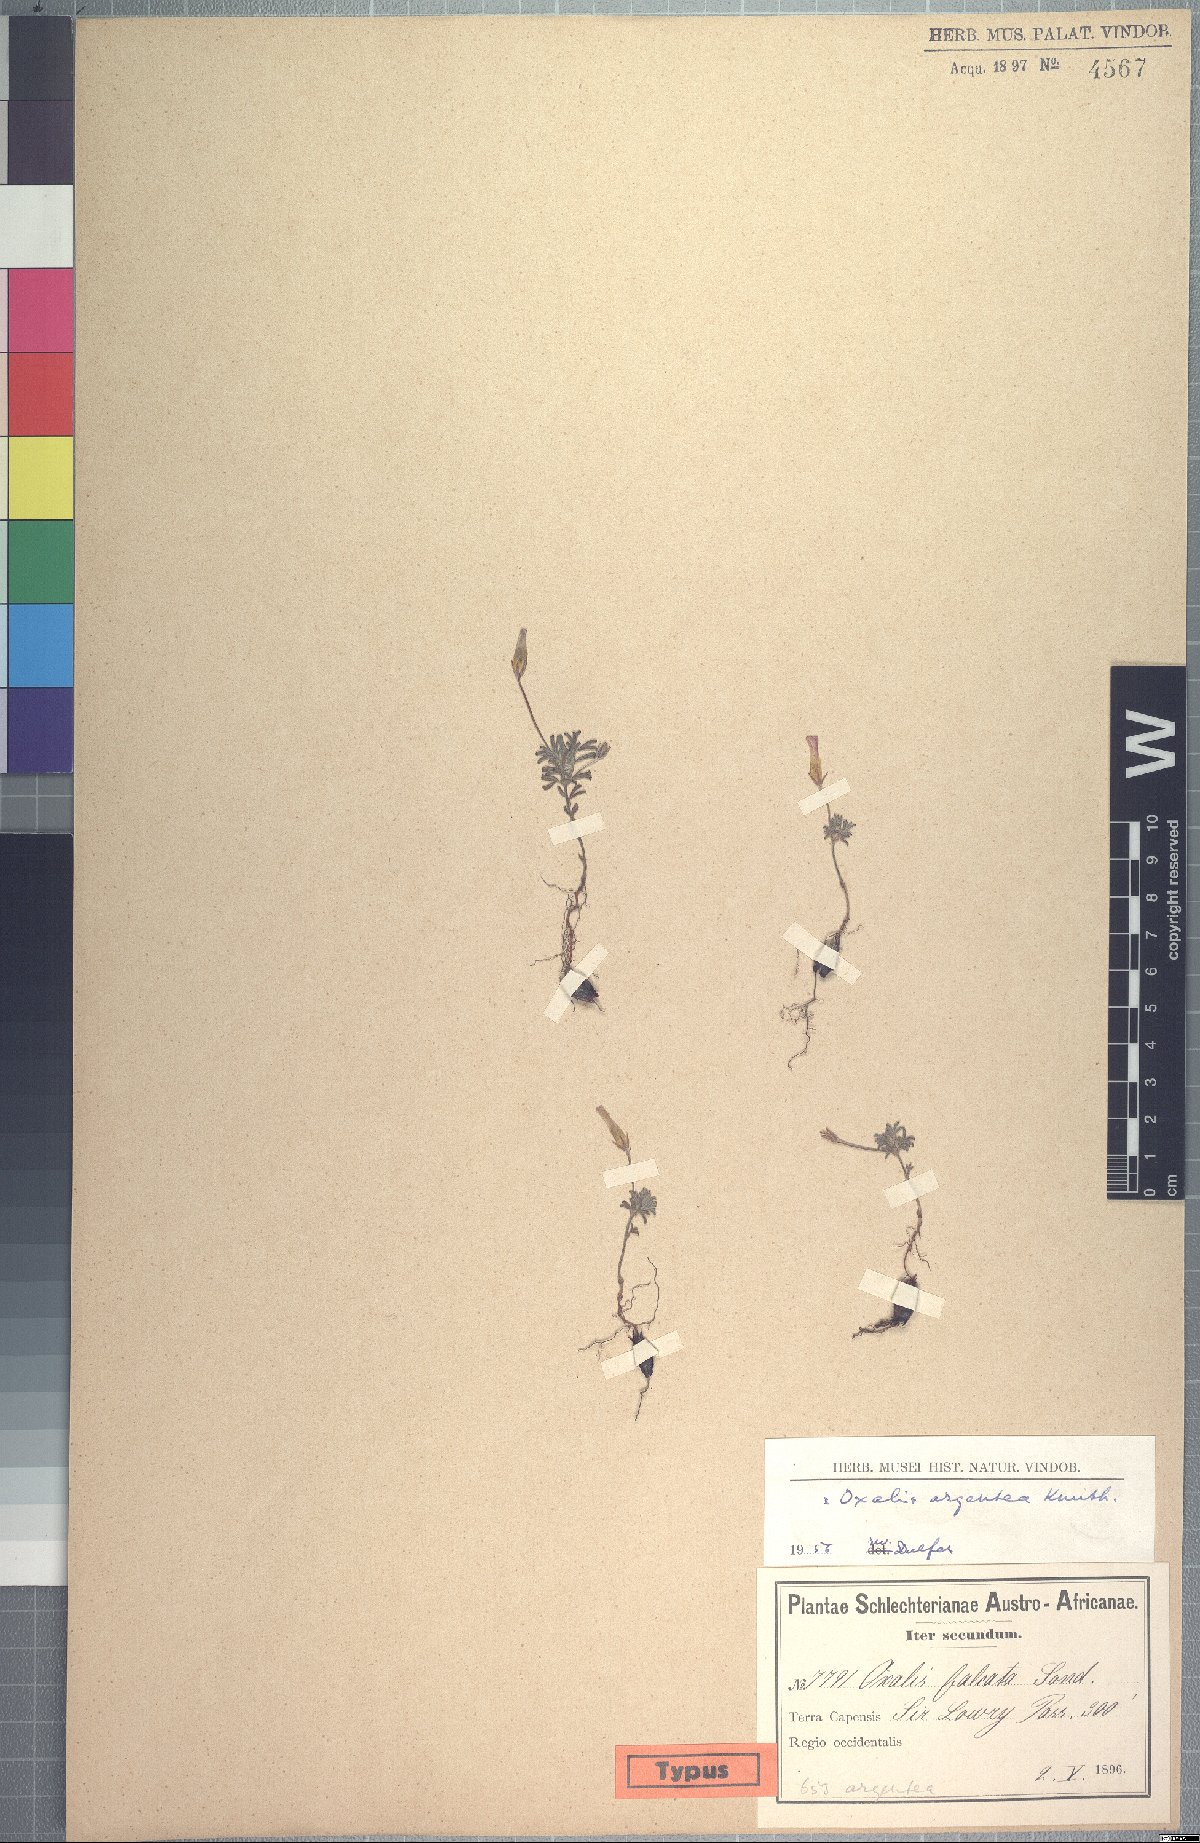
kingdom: Plantae
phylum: Tracheophyta
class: Magnoliopsida
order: Oxalidales
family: Oxalidaceae
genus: Oxalis
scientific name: Oxalis argyrophylla
